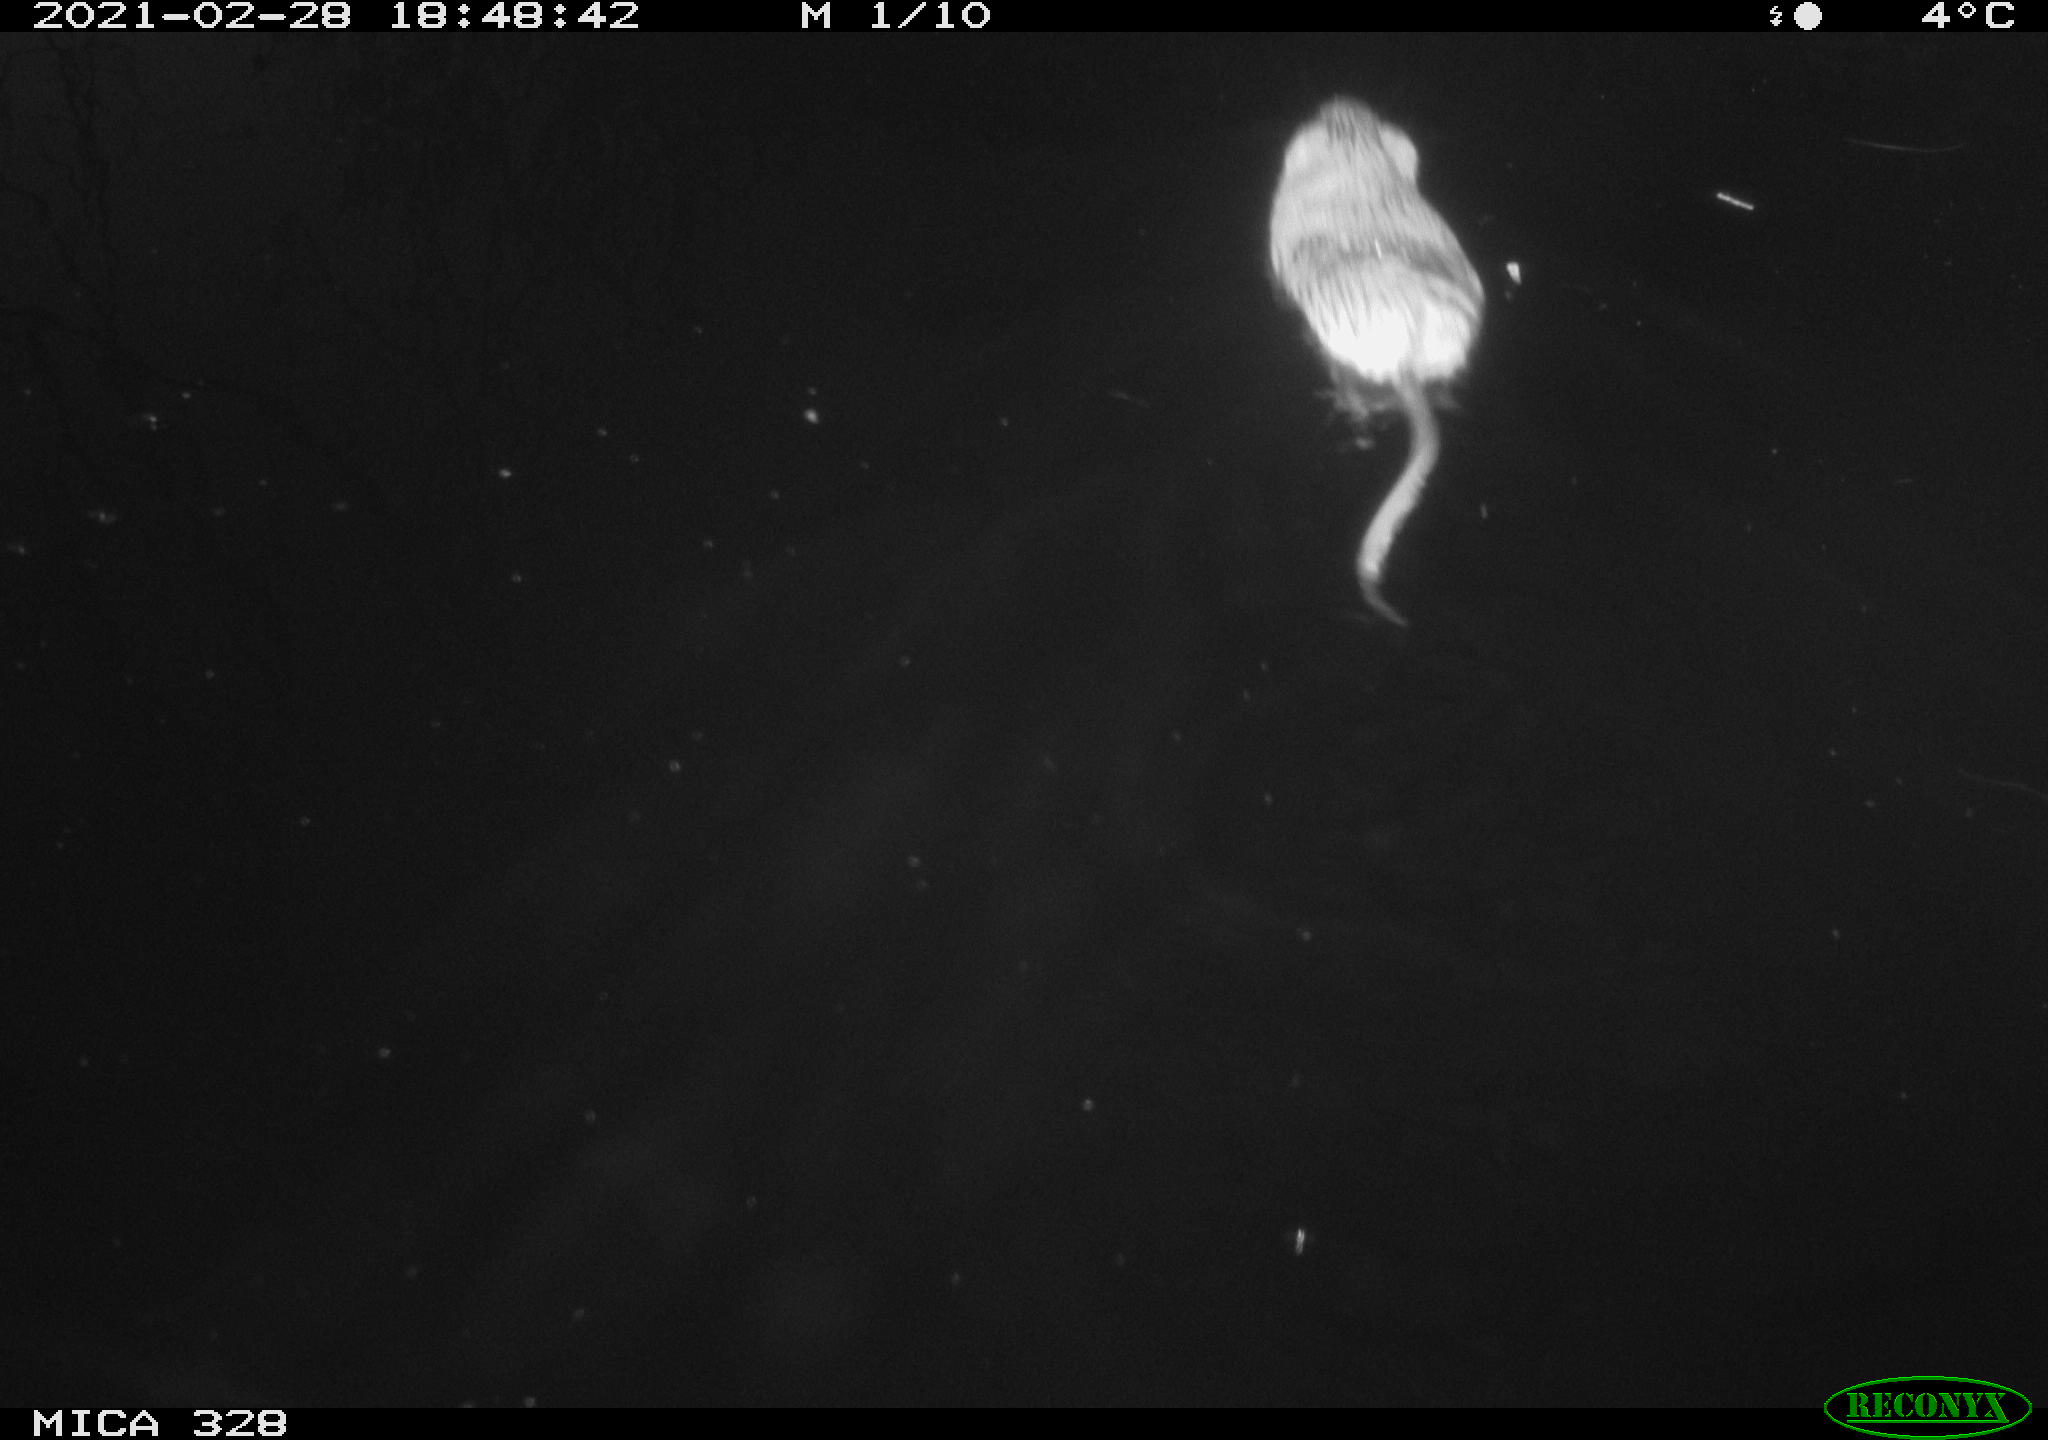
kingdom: Animalia
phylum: Chordata
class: Mammalia
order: Rodentia
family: Cricetidae
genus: Ondatra
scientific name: Ondatra zibethicus
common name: Muskrat
